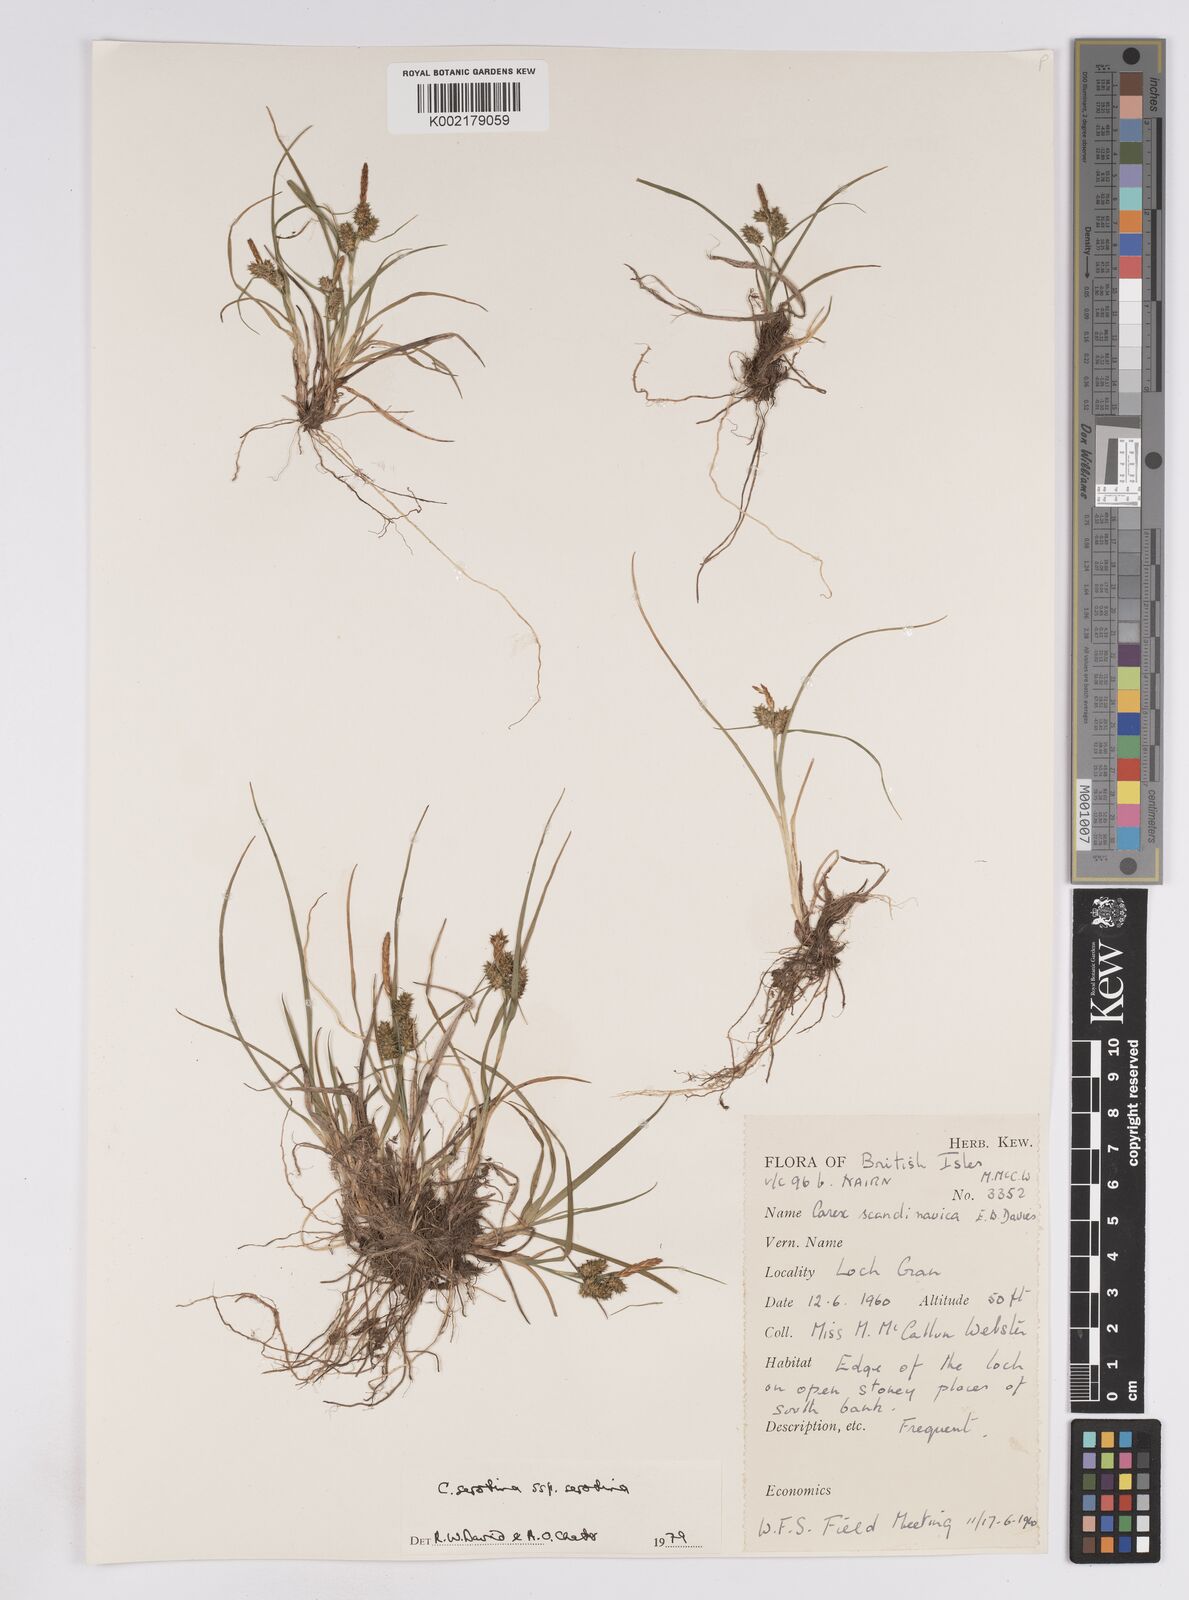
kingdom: Plantae
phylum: Tracheophyta
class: Liliopsida
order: Poales
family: Cyperaceae
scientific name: Cyperaceae
